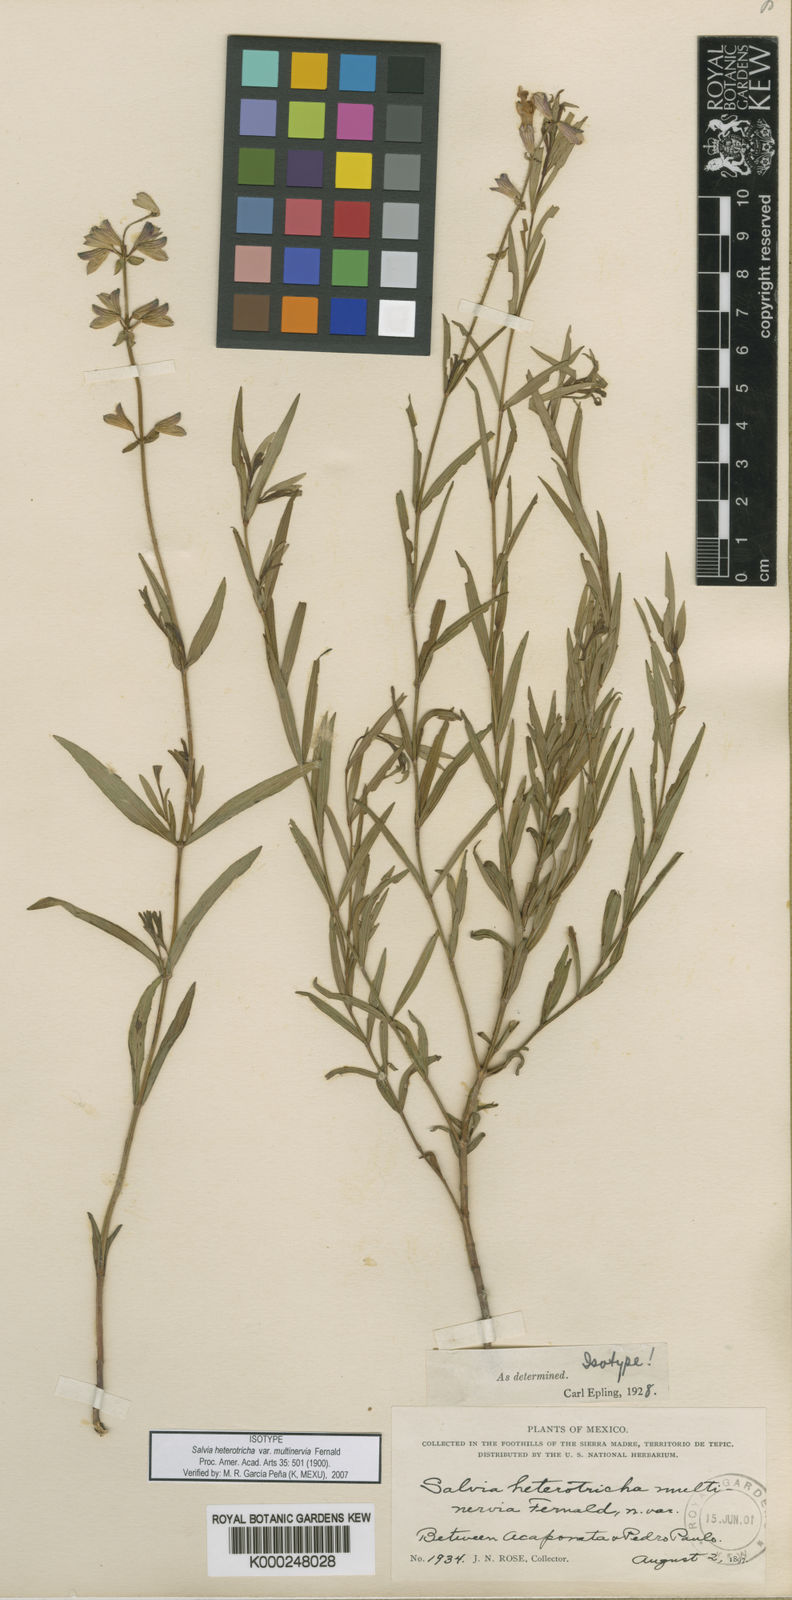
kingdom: Plantae
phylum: Tracheophyta
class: Magnoliopsida
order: Lamiales
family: Lamiaceae
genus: Salvia
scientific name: Salvia heterotricha
